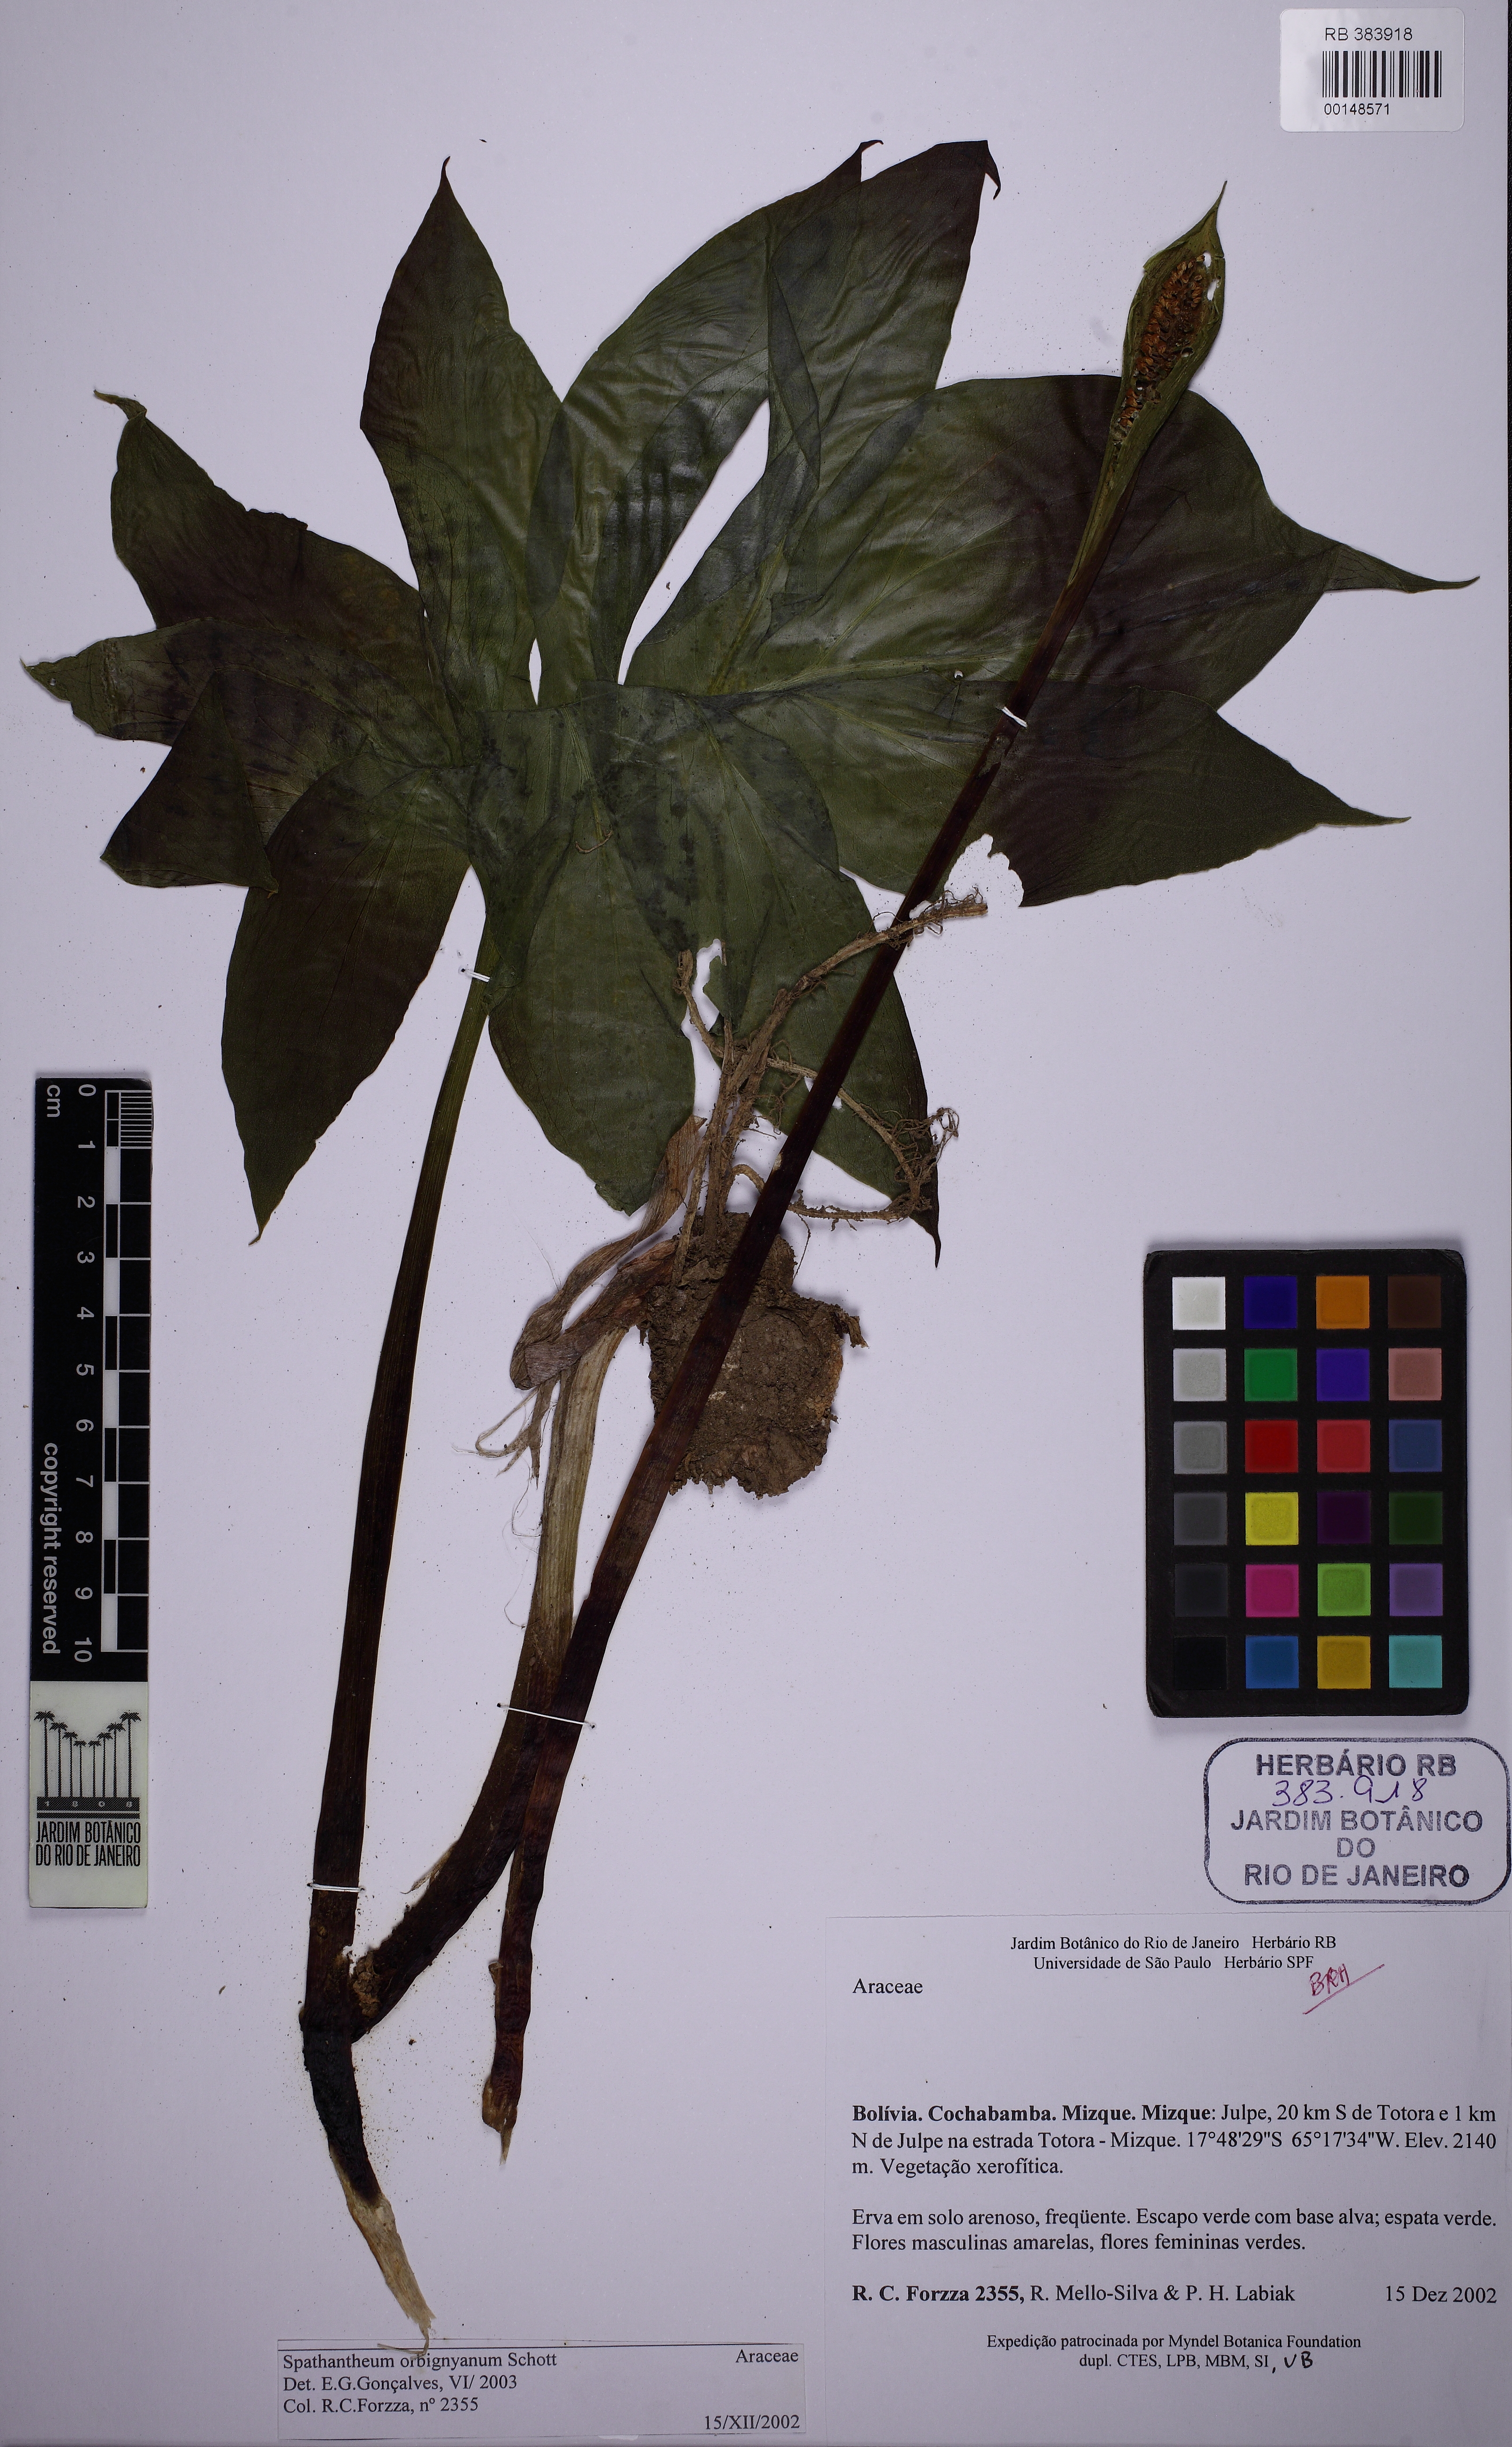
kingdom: Plantae
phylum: Tracheophyta
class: Liliopsida
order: Alismatales
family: Araceae
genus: Spathantheum
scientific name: Spathantheum orbignyanum
